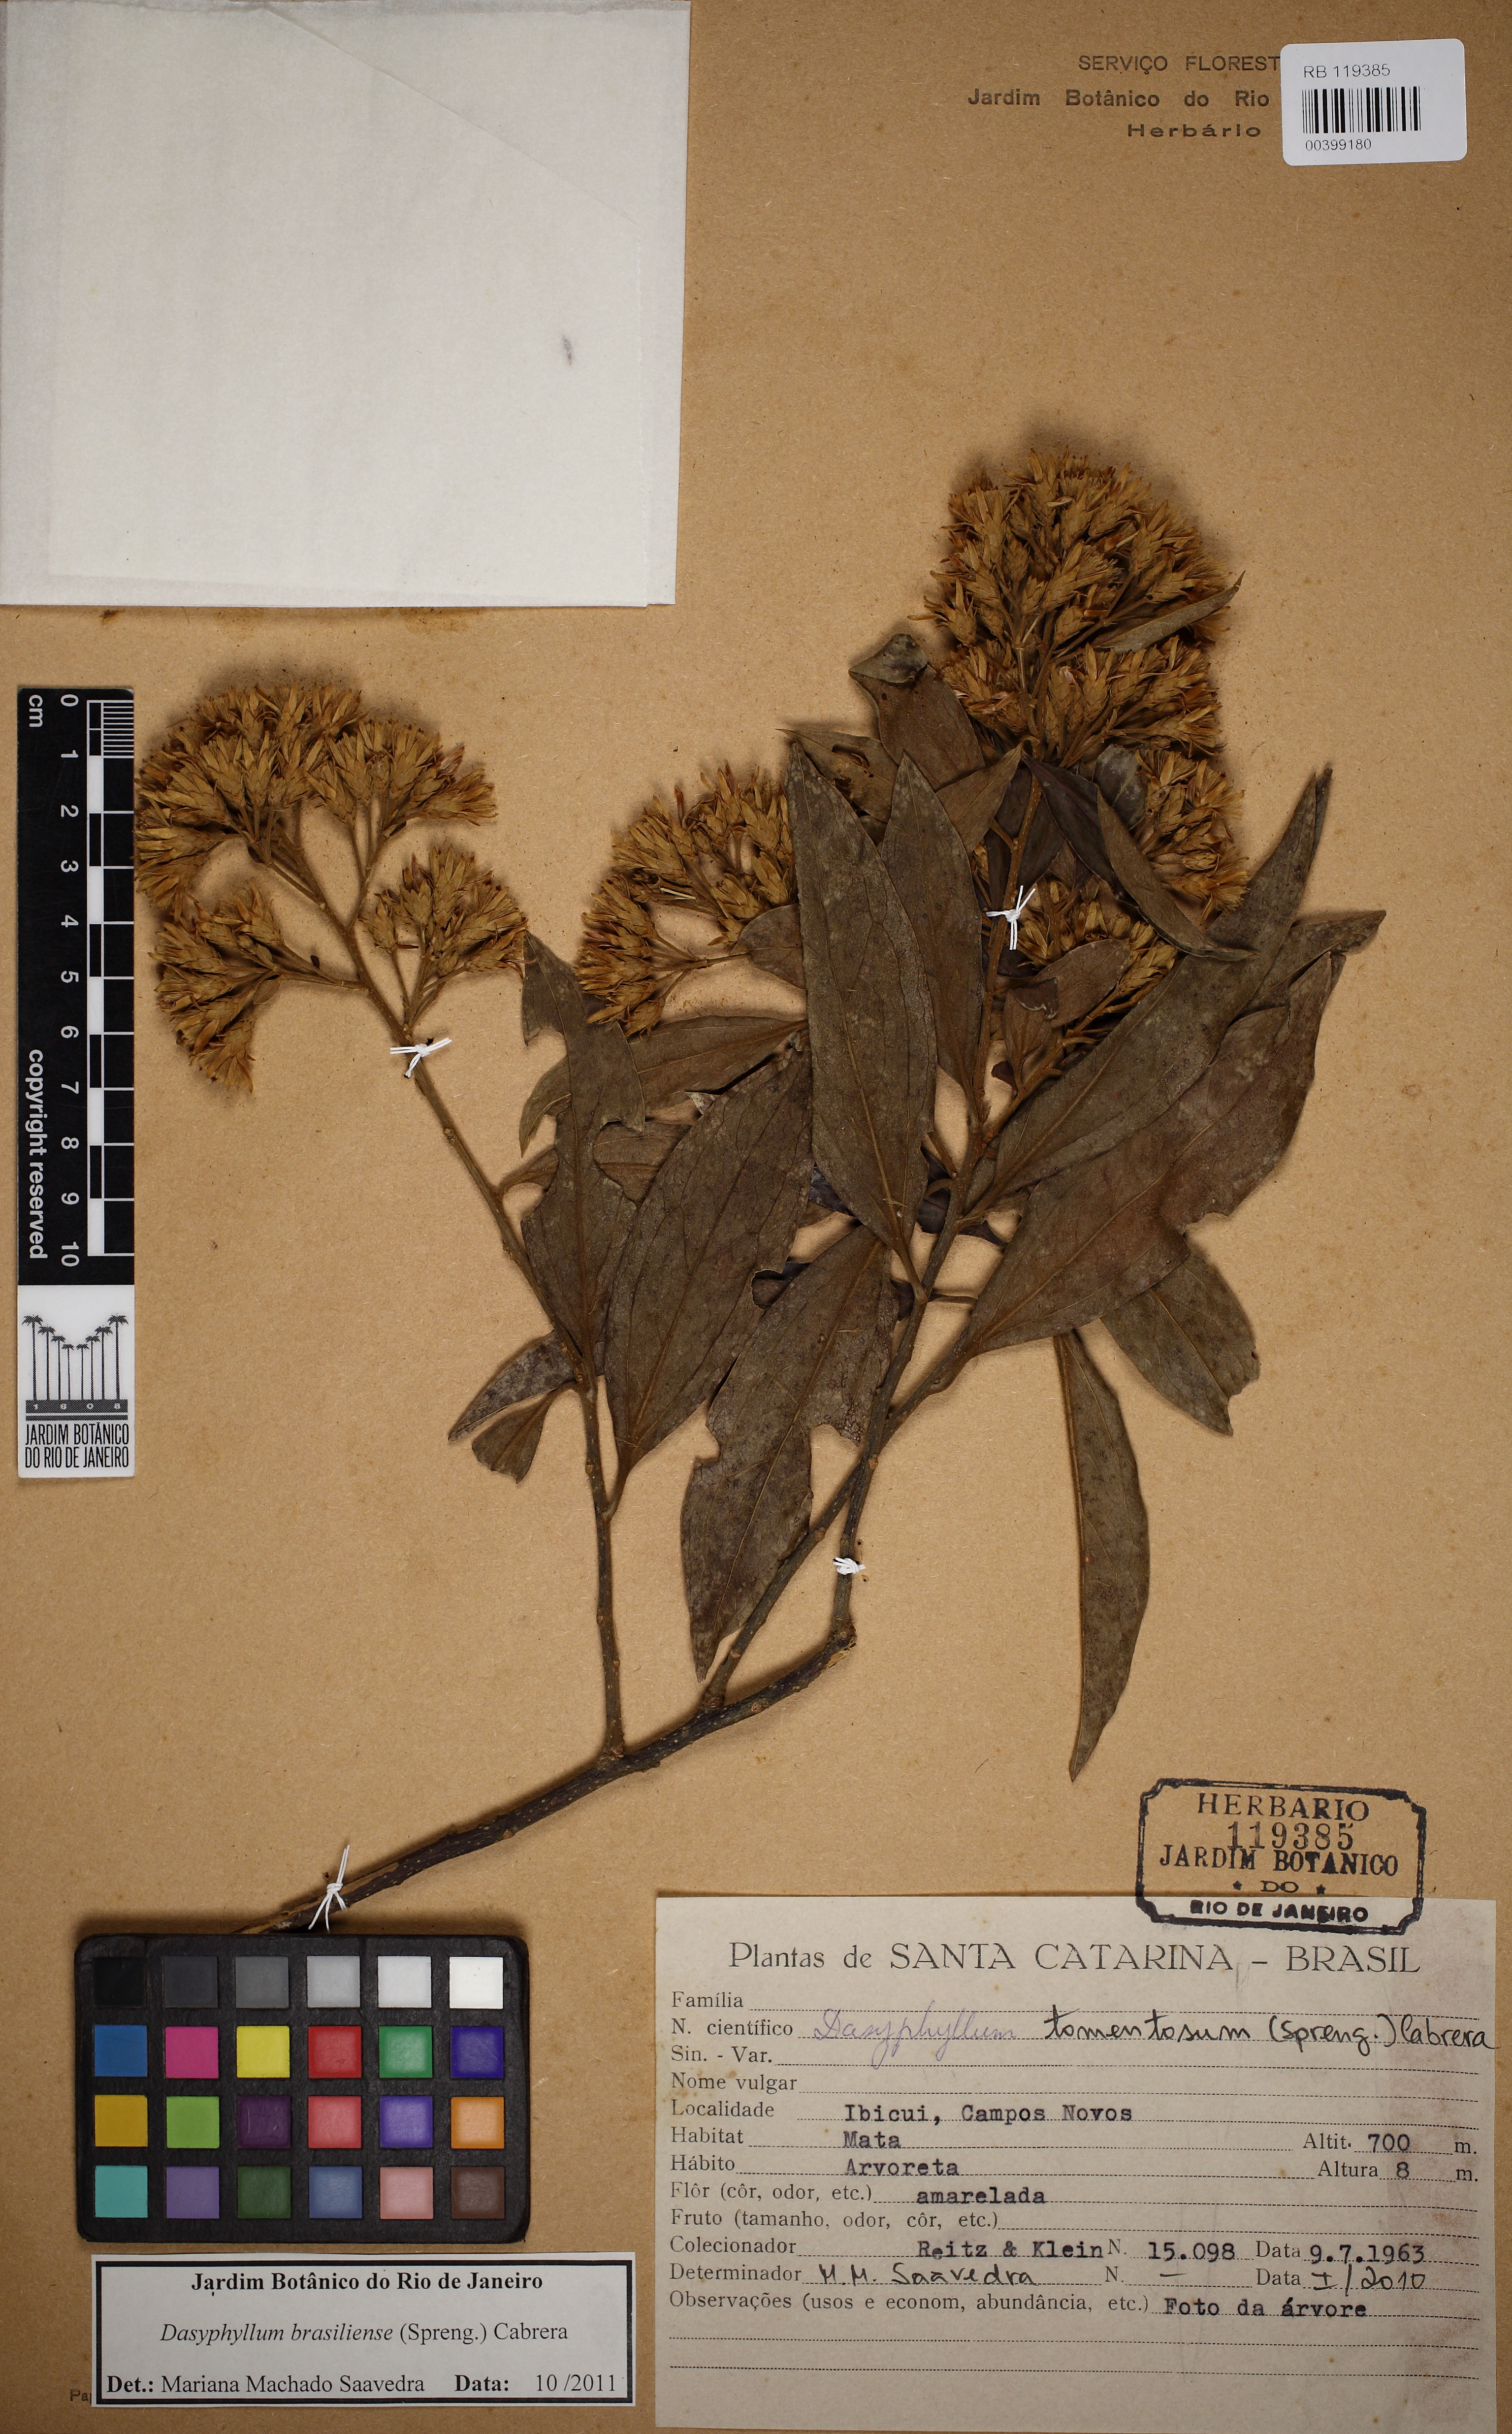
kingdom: Plantae
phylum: Tracheophyta
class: Magnoliopsida
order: Asterales
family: Asteraceae
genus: Dasyphyllum
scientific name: Dasyphyllum brasiliense
